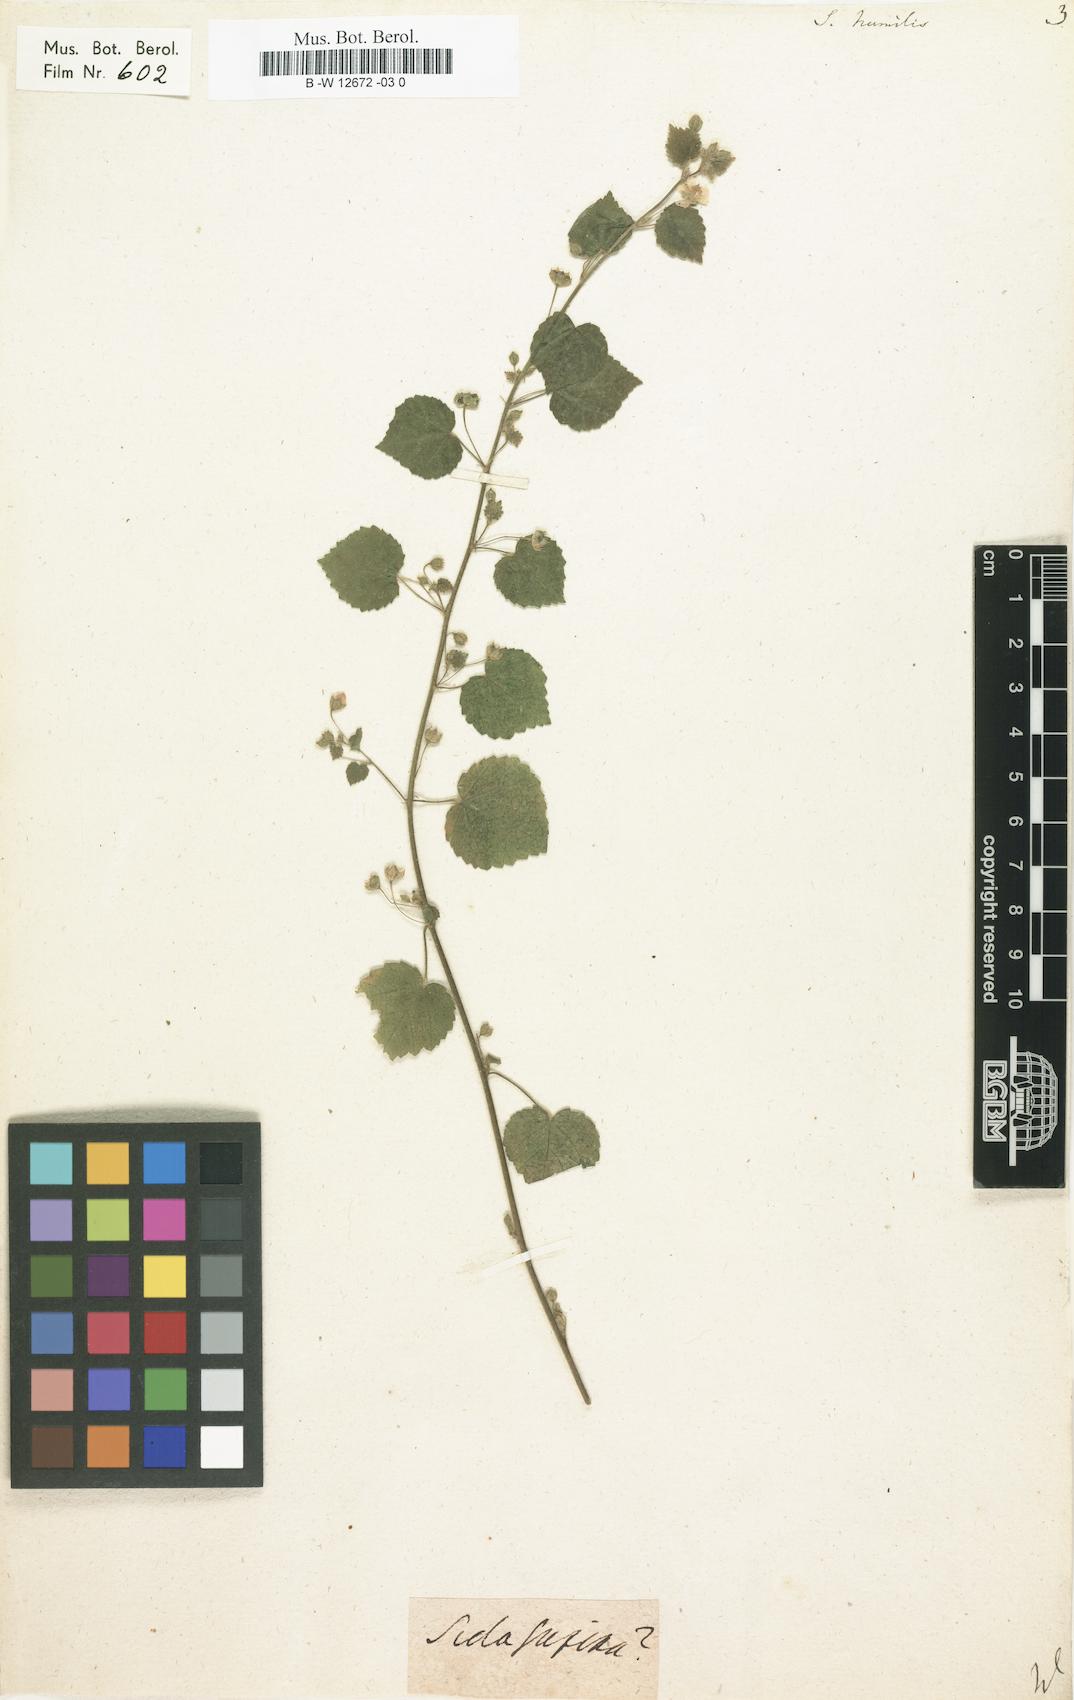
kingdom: Plantae
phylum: Tracheophyta
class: Magnoliopsida
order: Malvales
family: Malvaceae
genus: Sida
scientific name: Sida cordata
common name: Long-stalk sida
